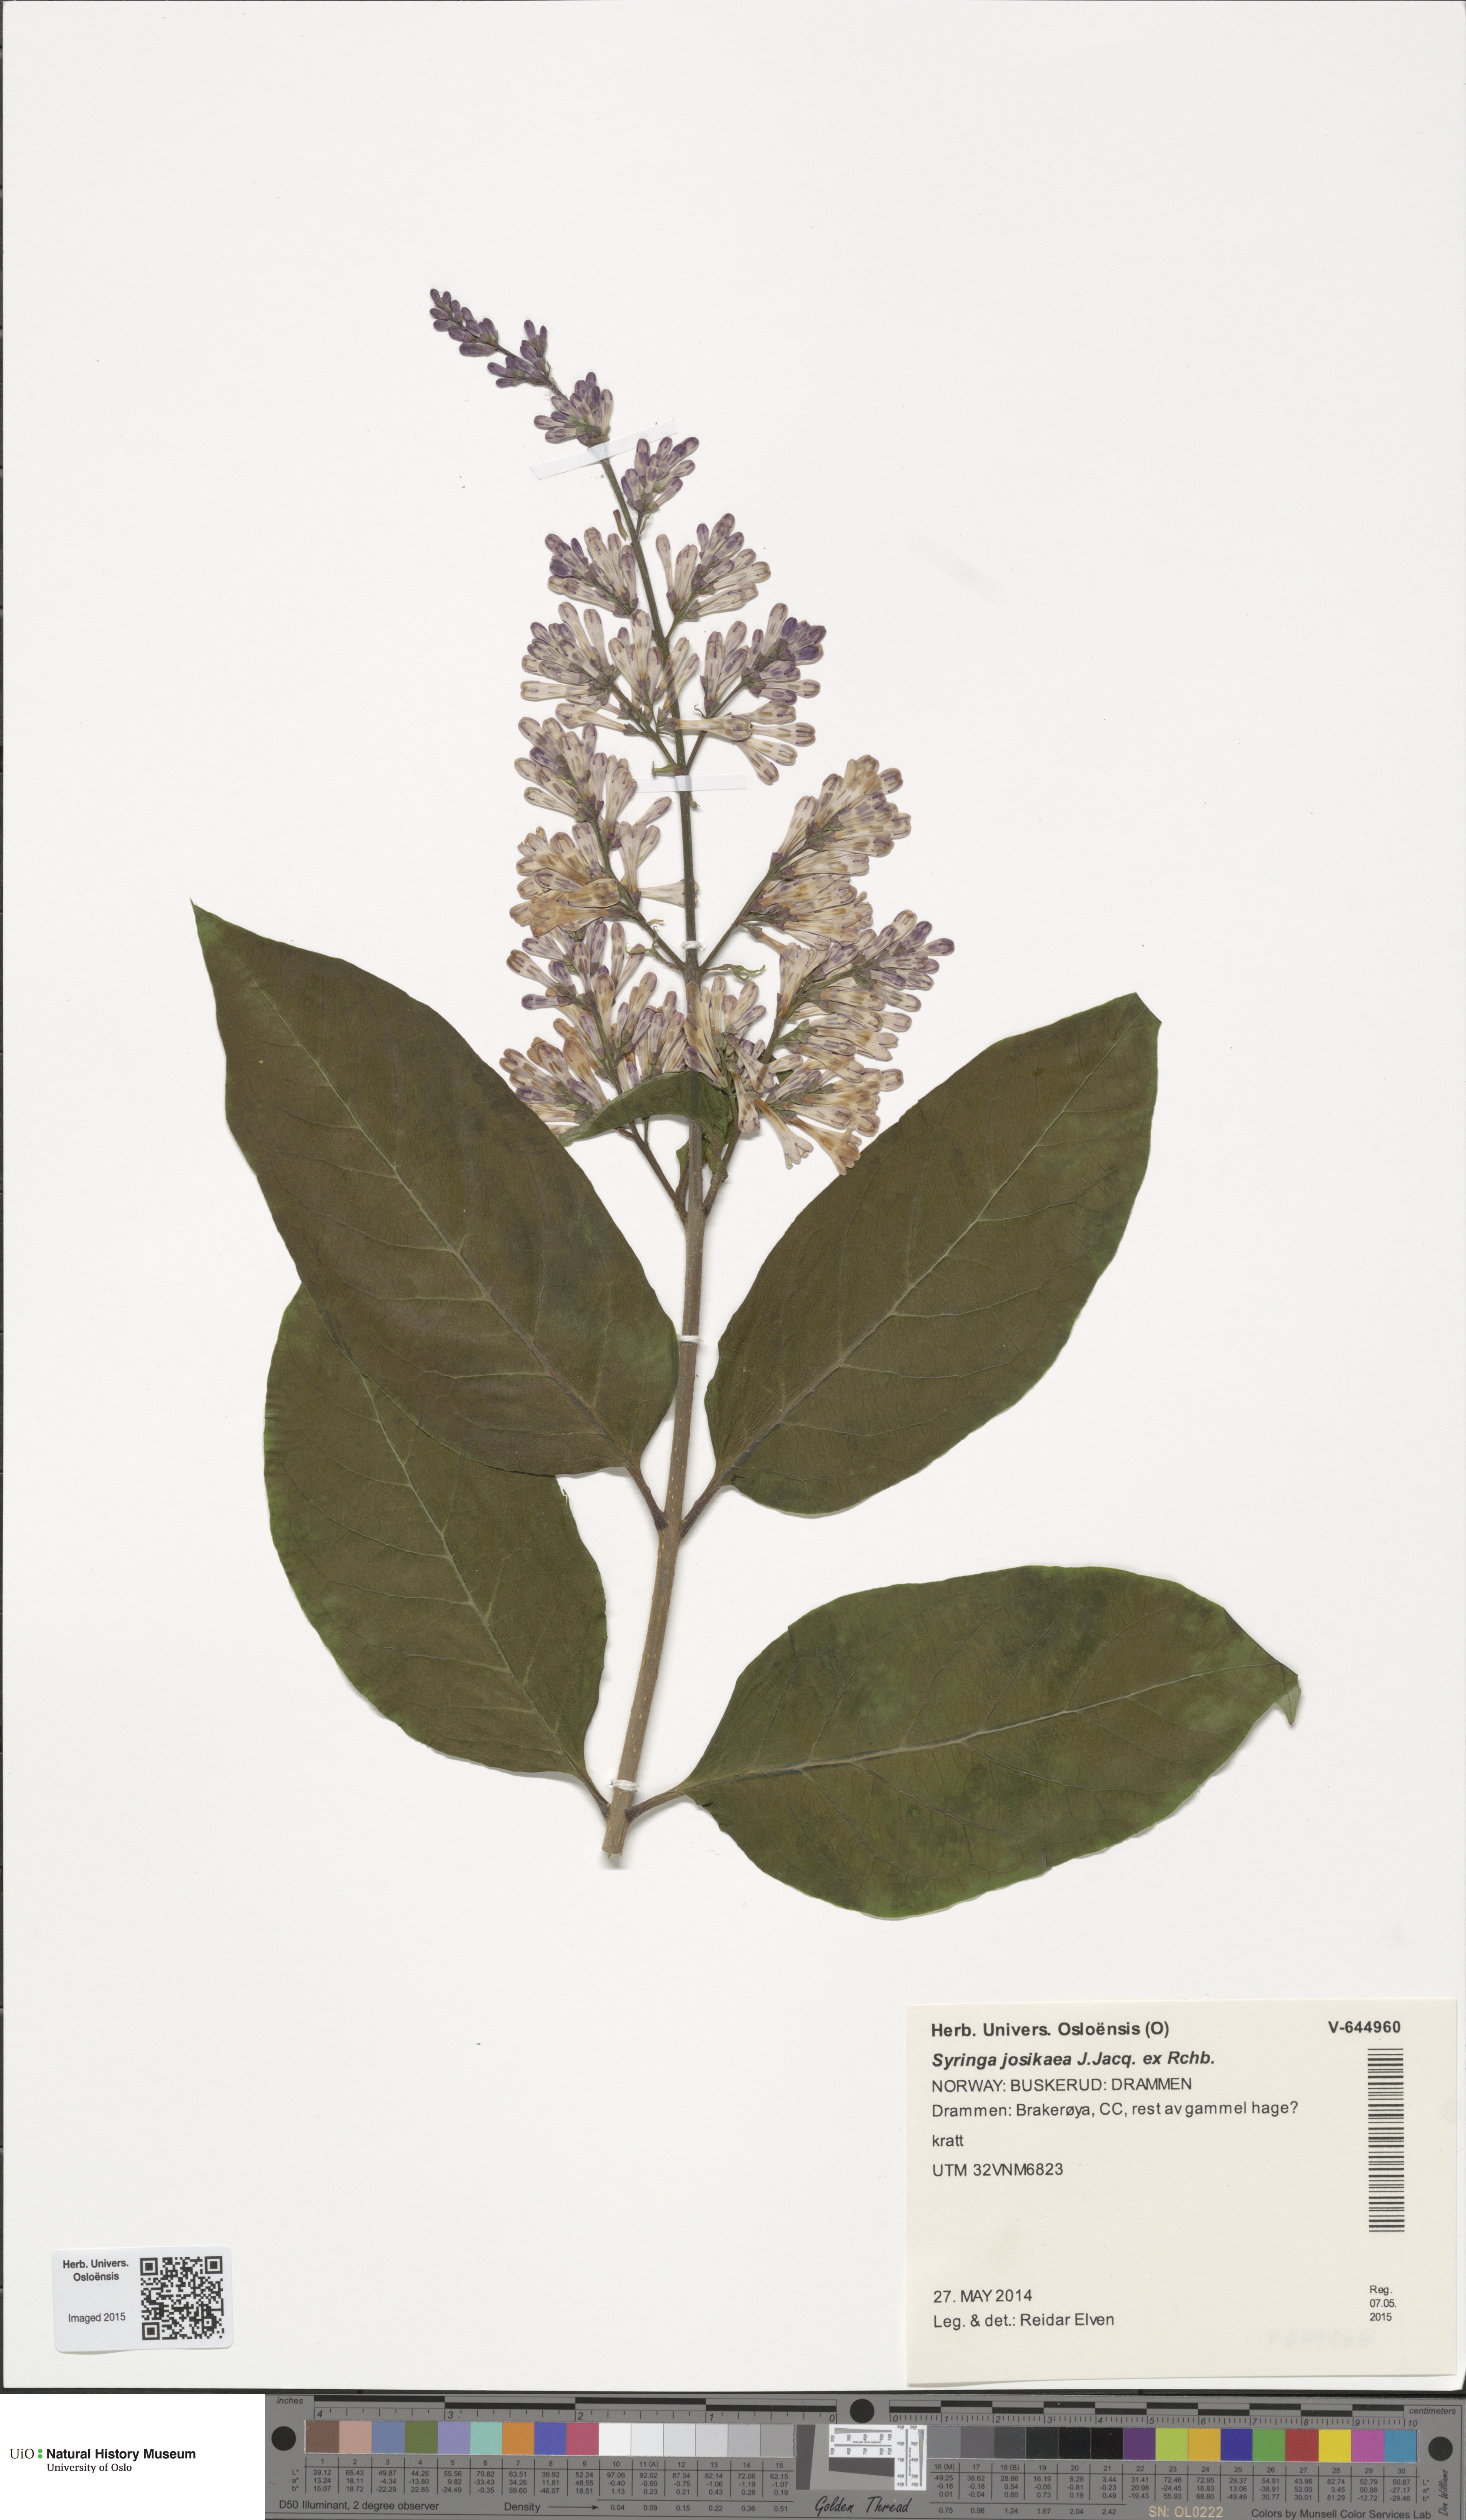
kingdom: Plantae
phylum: Tracheophyta
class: Magnoliopsida
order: Lamiales
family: Oleaceae
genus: Syringa
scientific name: Syringa josikaea
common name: Hungarian lilac
